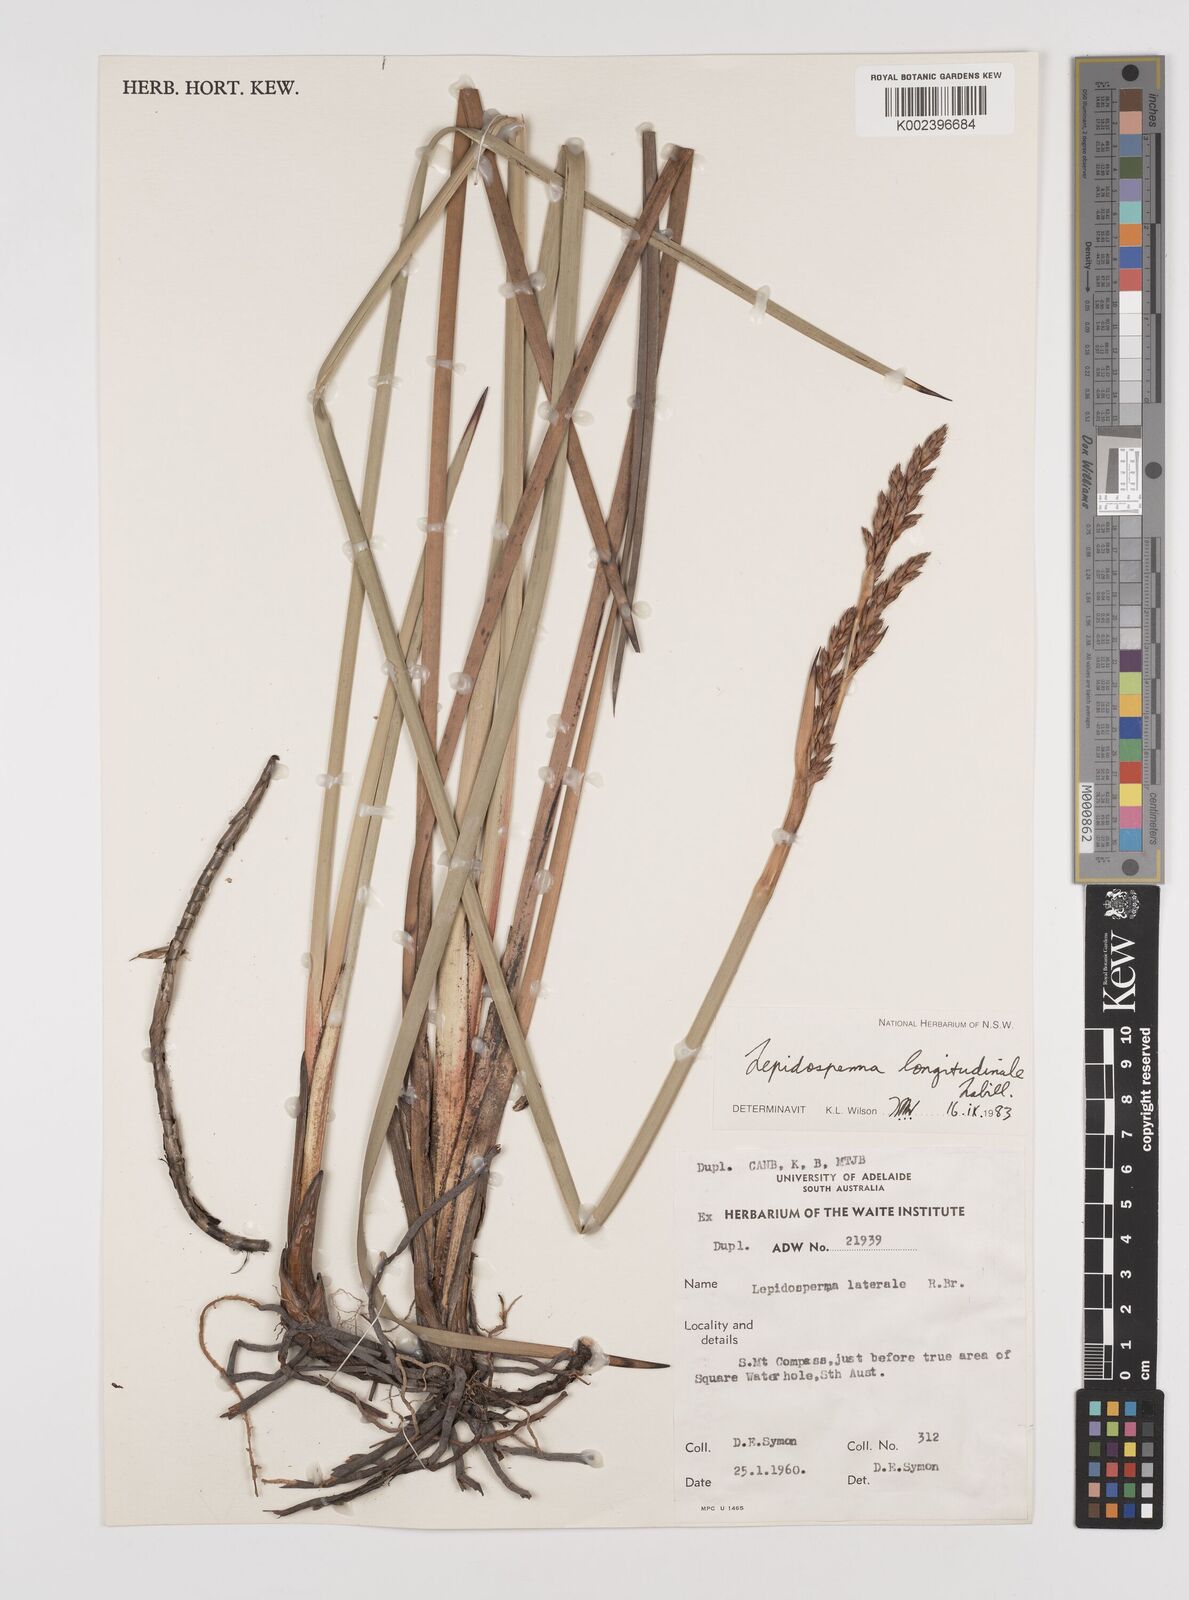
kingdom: Plantae
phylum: Tracheophyta
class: Liliopsida
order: Poales
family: Cyperaceae
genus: Lepidosperma
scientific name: Lepidosperma longitudinale
